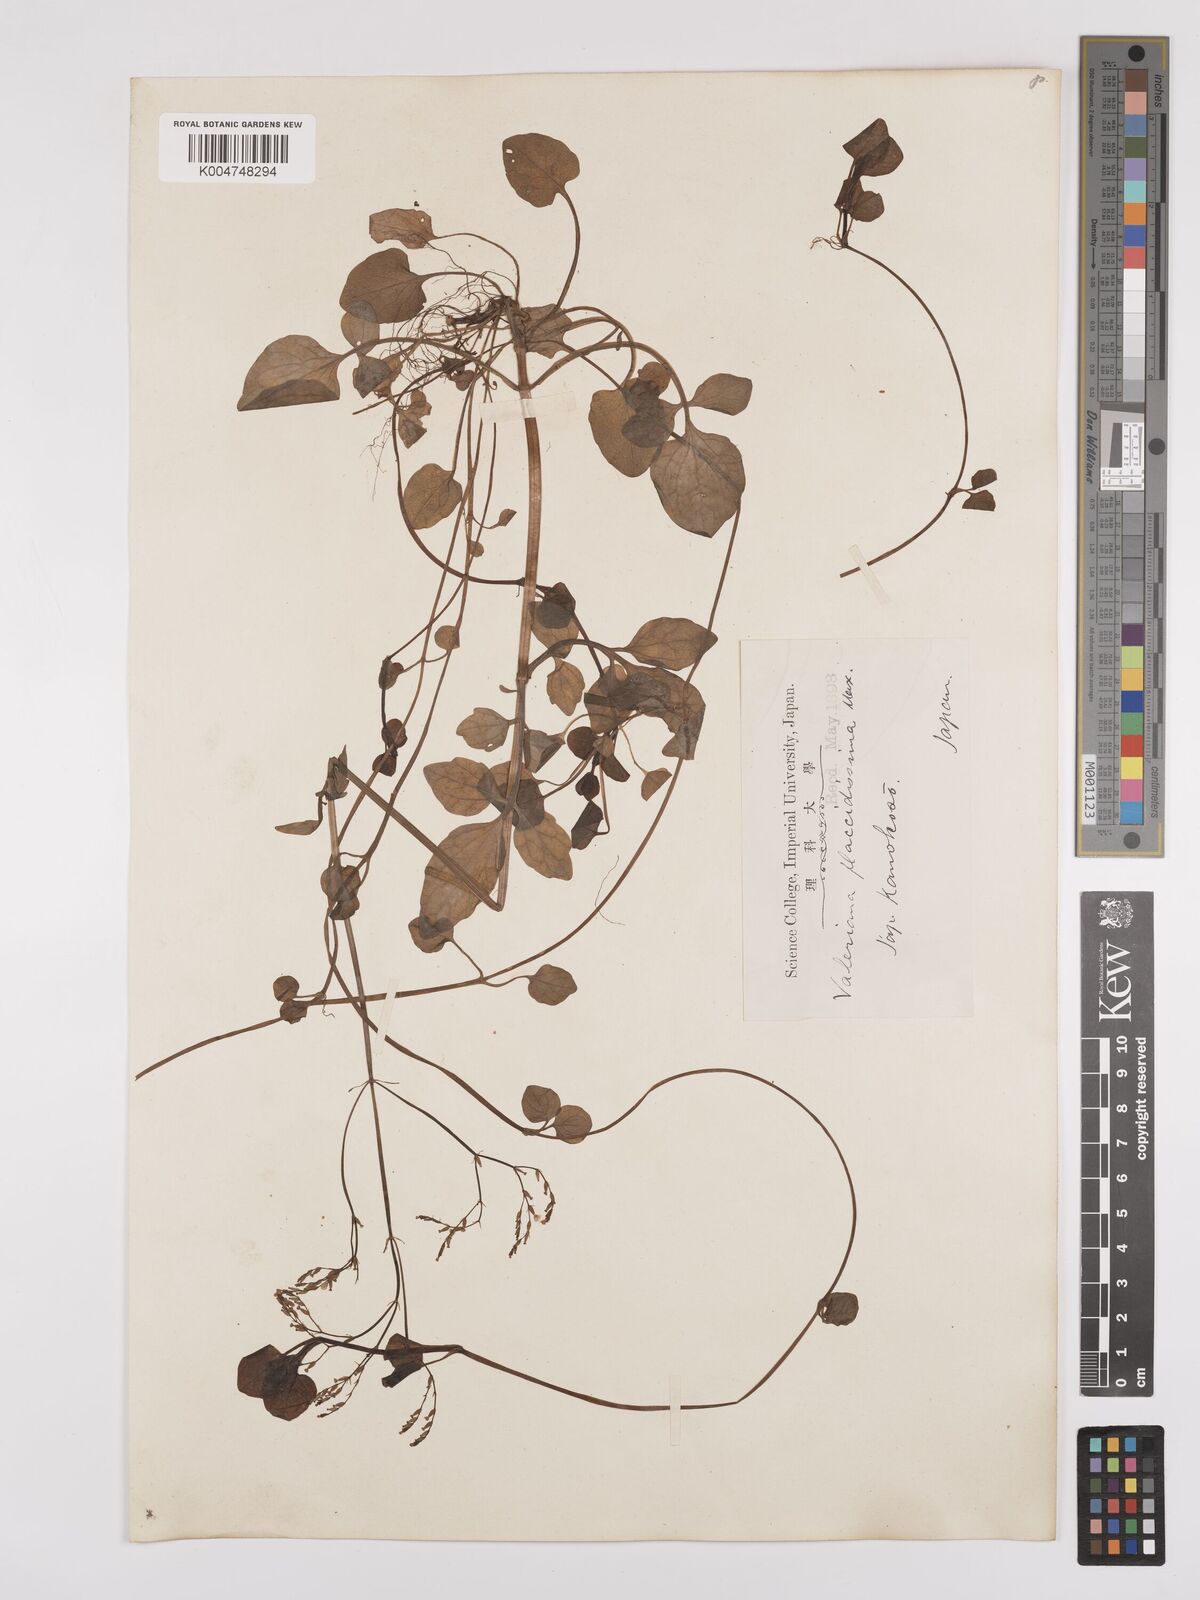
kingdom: Plantae
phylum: Tracheophyta
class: Magnoliopsida
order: Dipsacales
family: Caprifoliaceae
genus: Valeriana
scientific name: Valeriana flaccidissima
